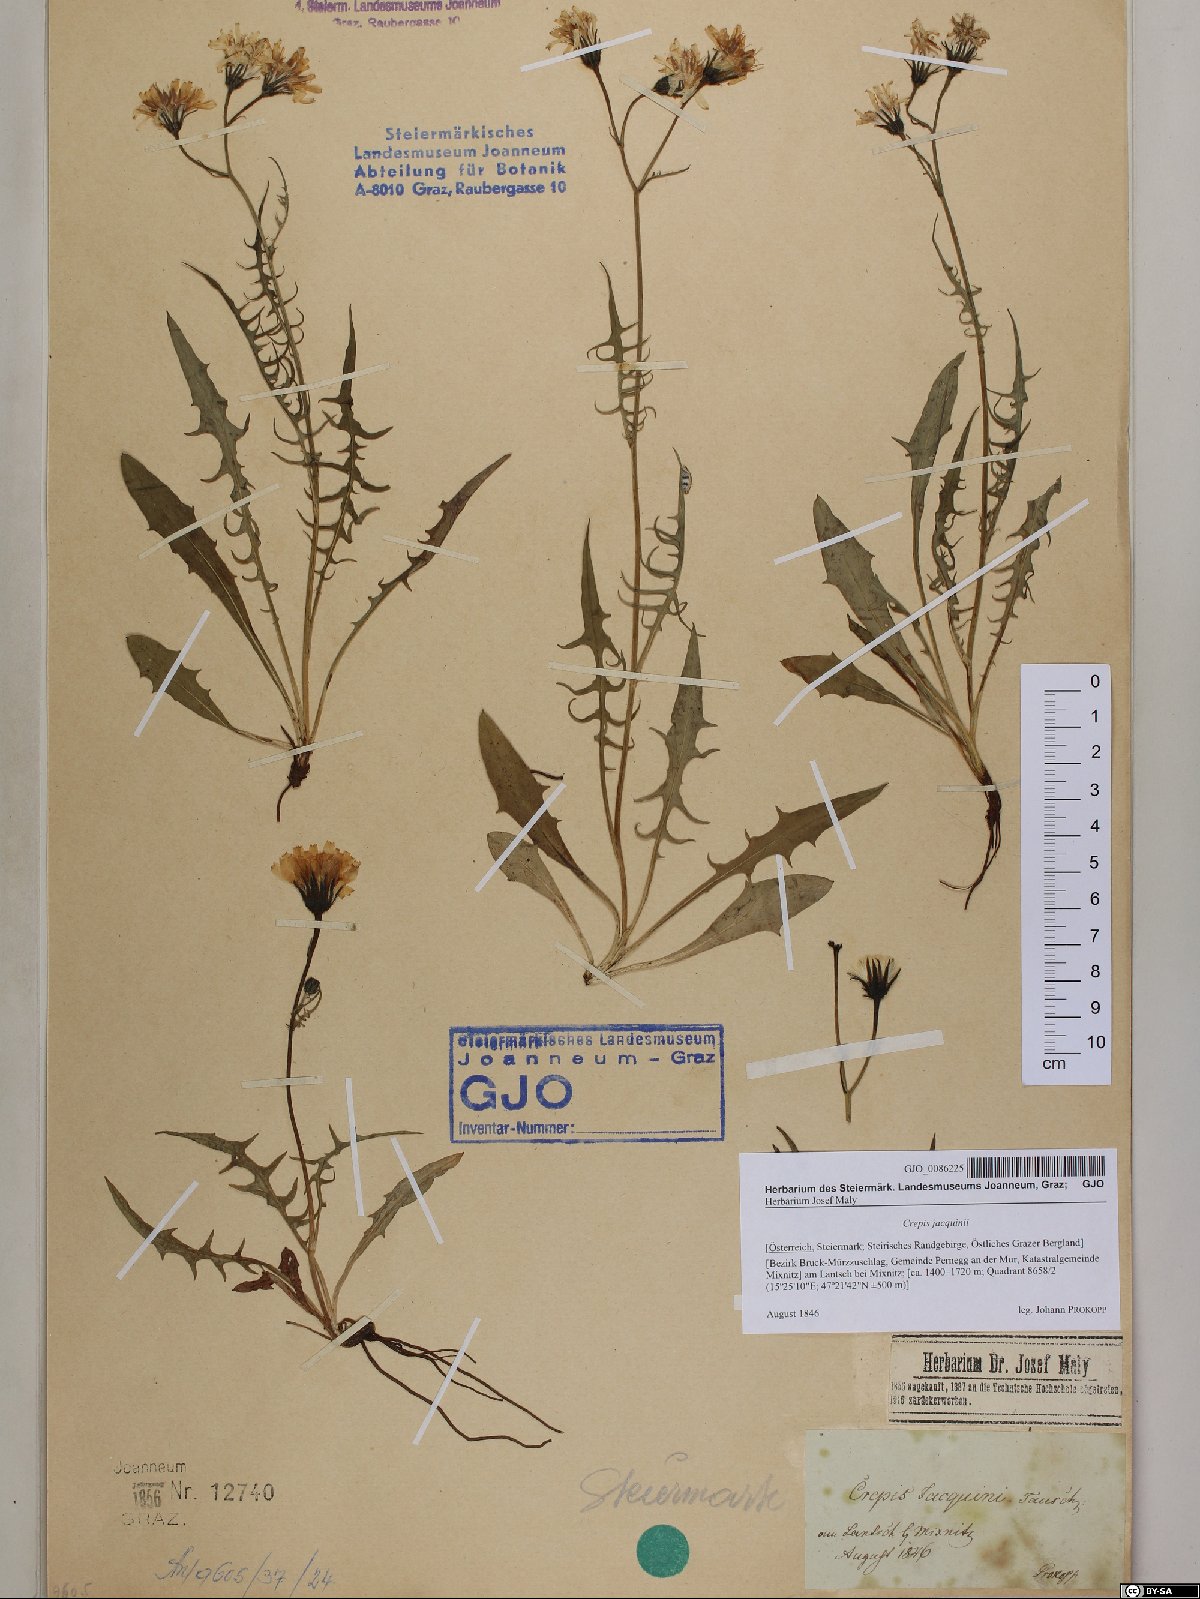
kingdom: Plantae
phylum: Tracheophyta
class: Magnoliopsida
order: Asterales
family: Asteraceae
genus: Crepis
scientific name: Crepis jacquinii
